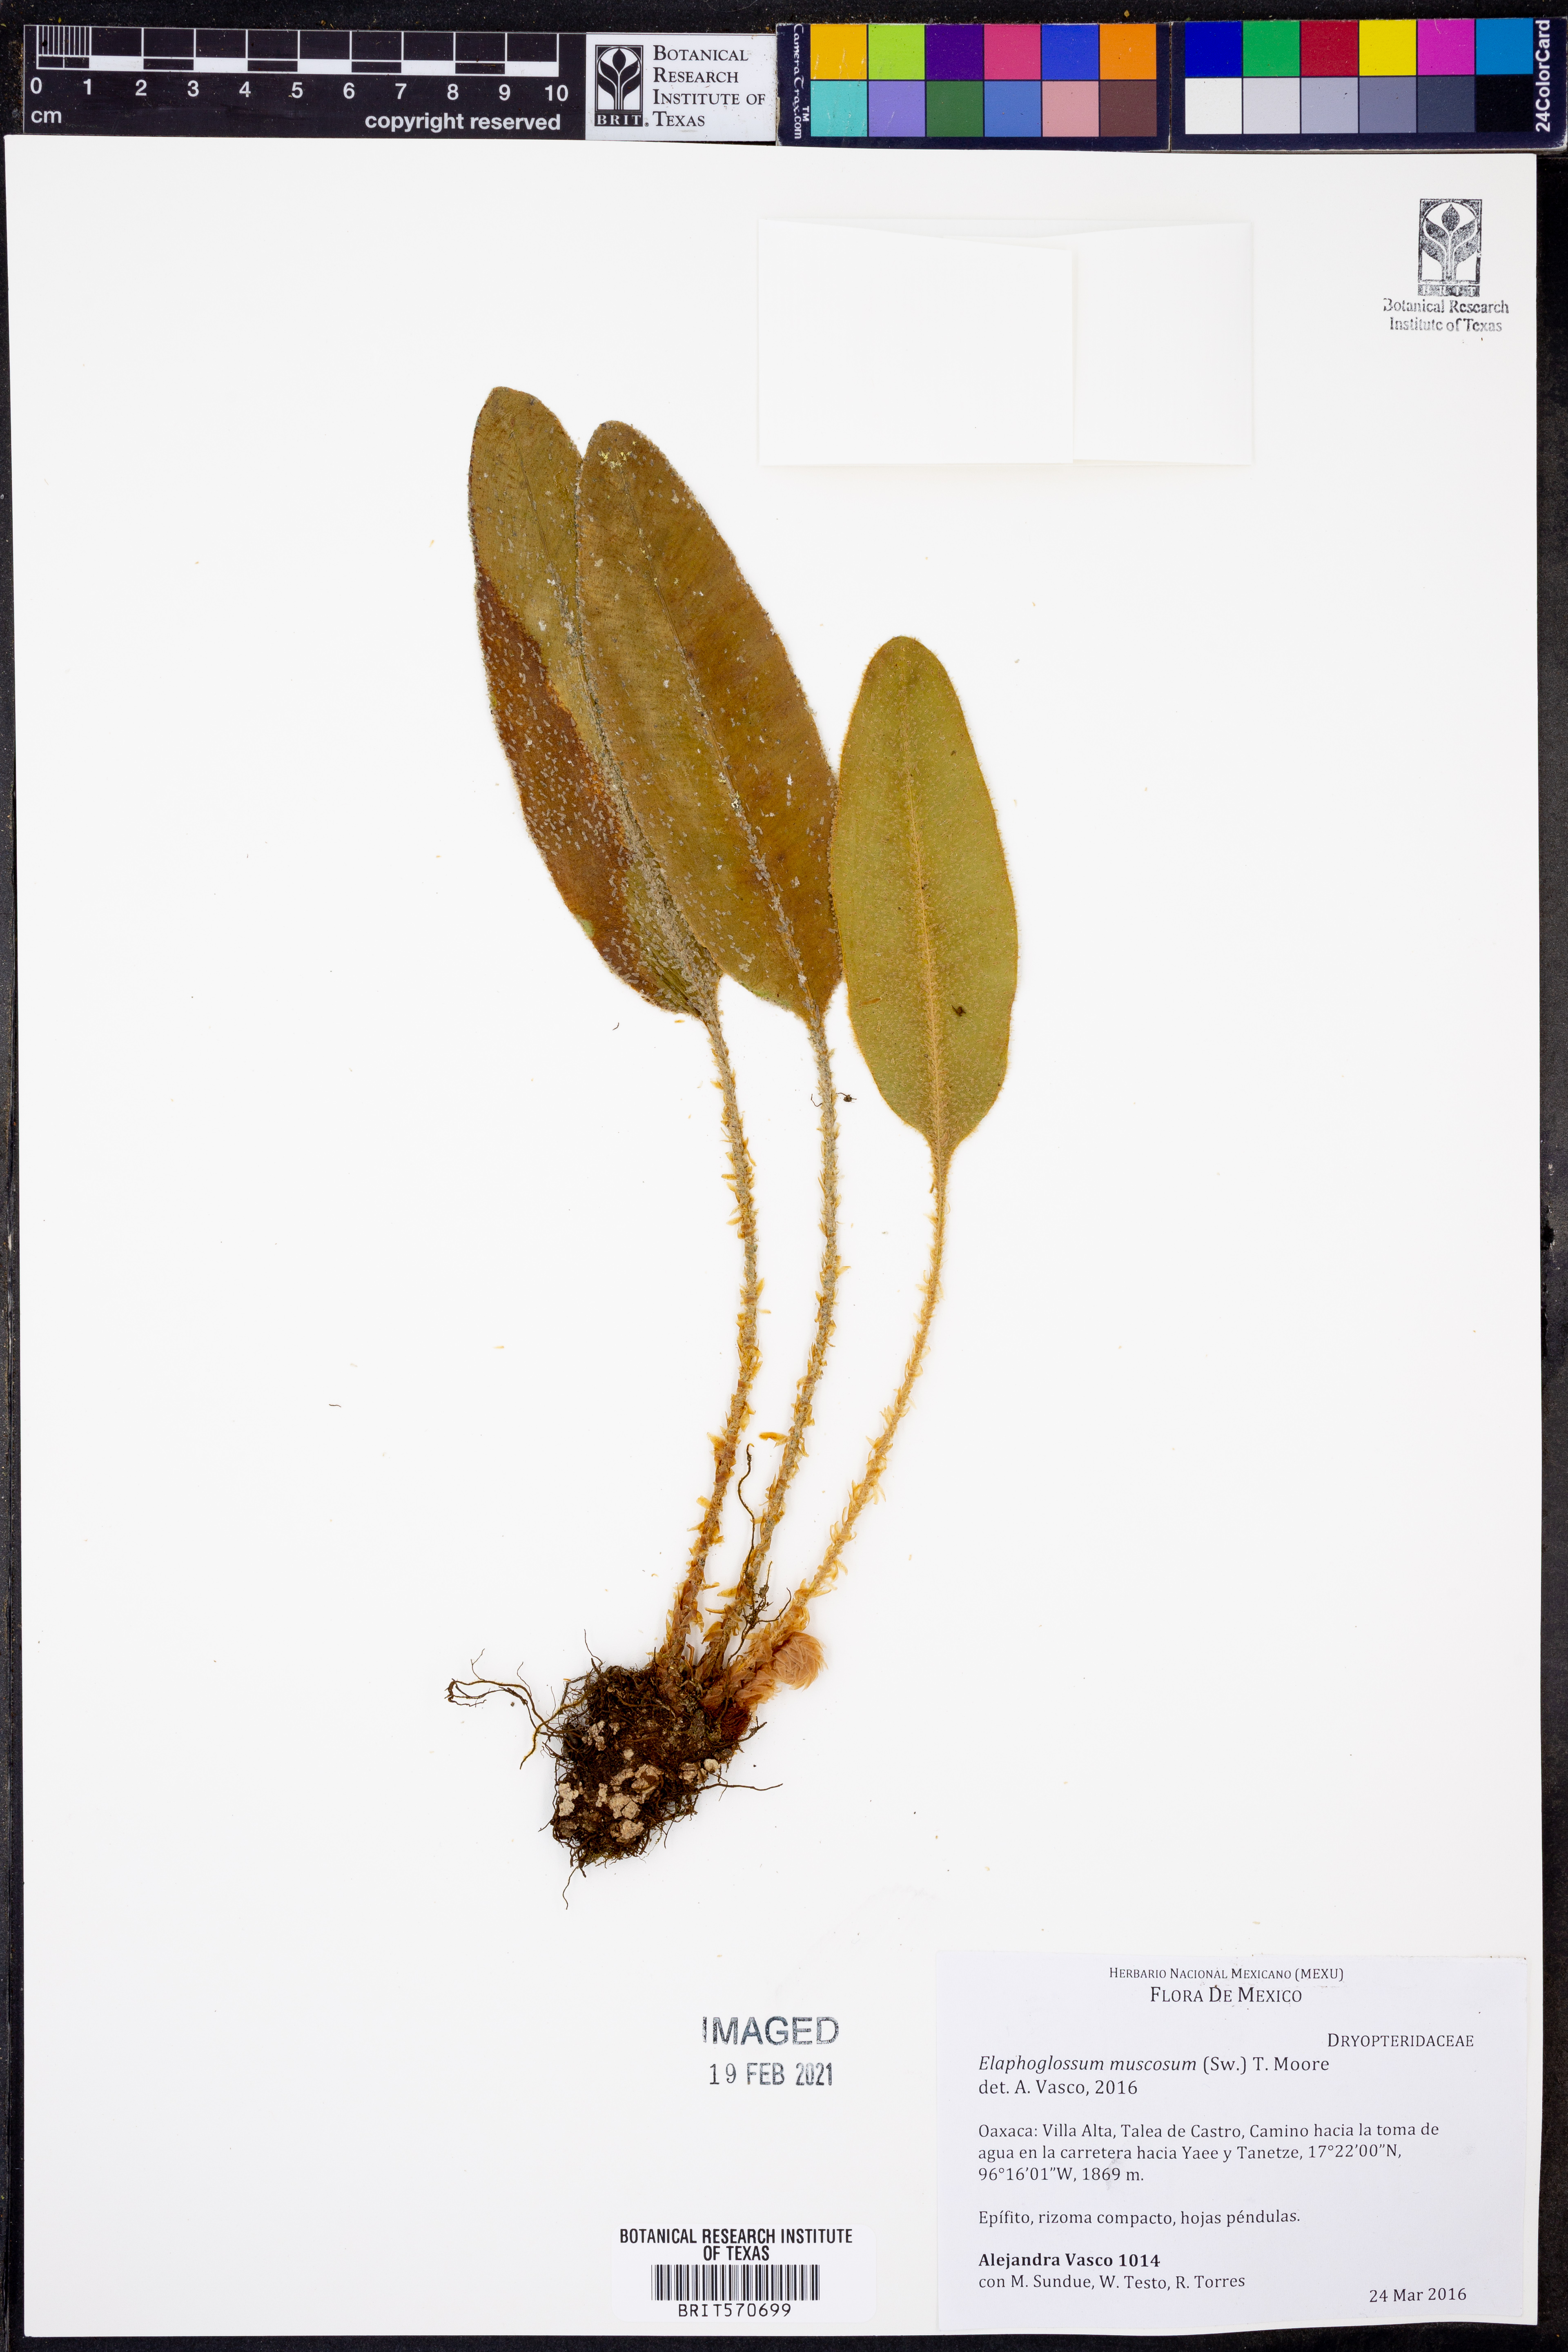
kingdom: Plantae
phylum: Tracheophyta
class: Polypodiopsida
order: Polypodiales
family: Dryopteridaceae
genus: Elaphoglossum
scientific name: Elaphoglossum muscosum
